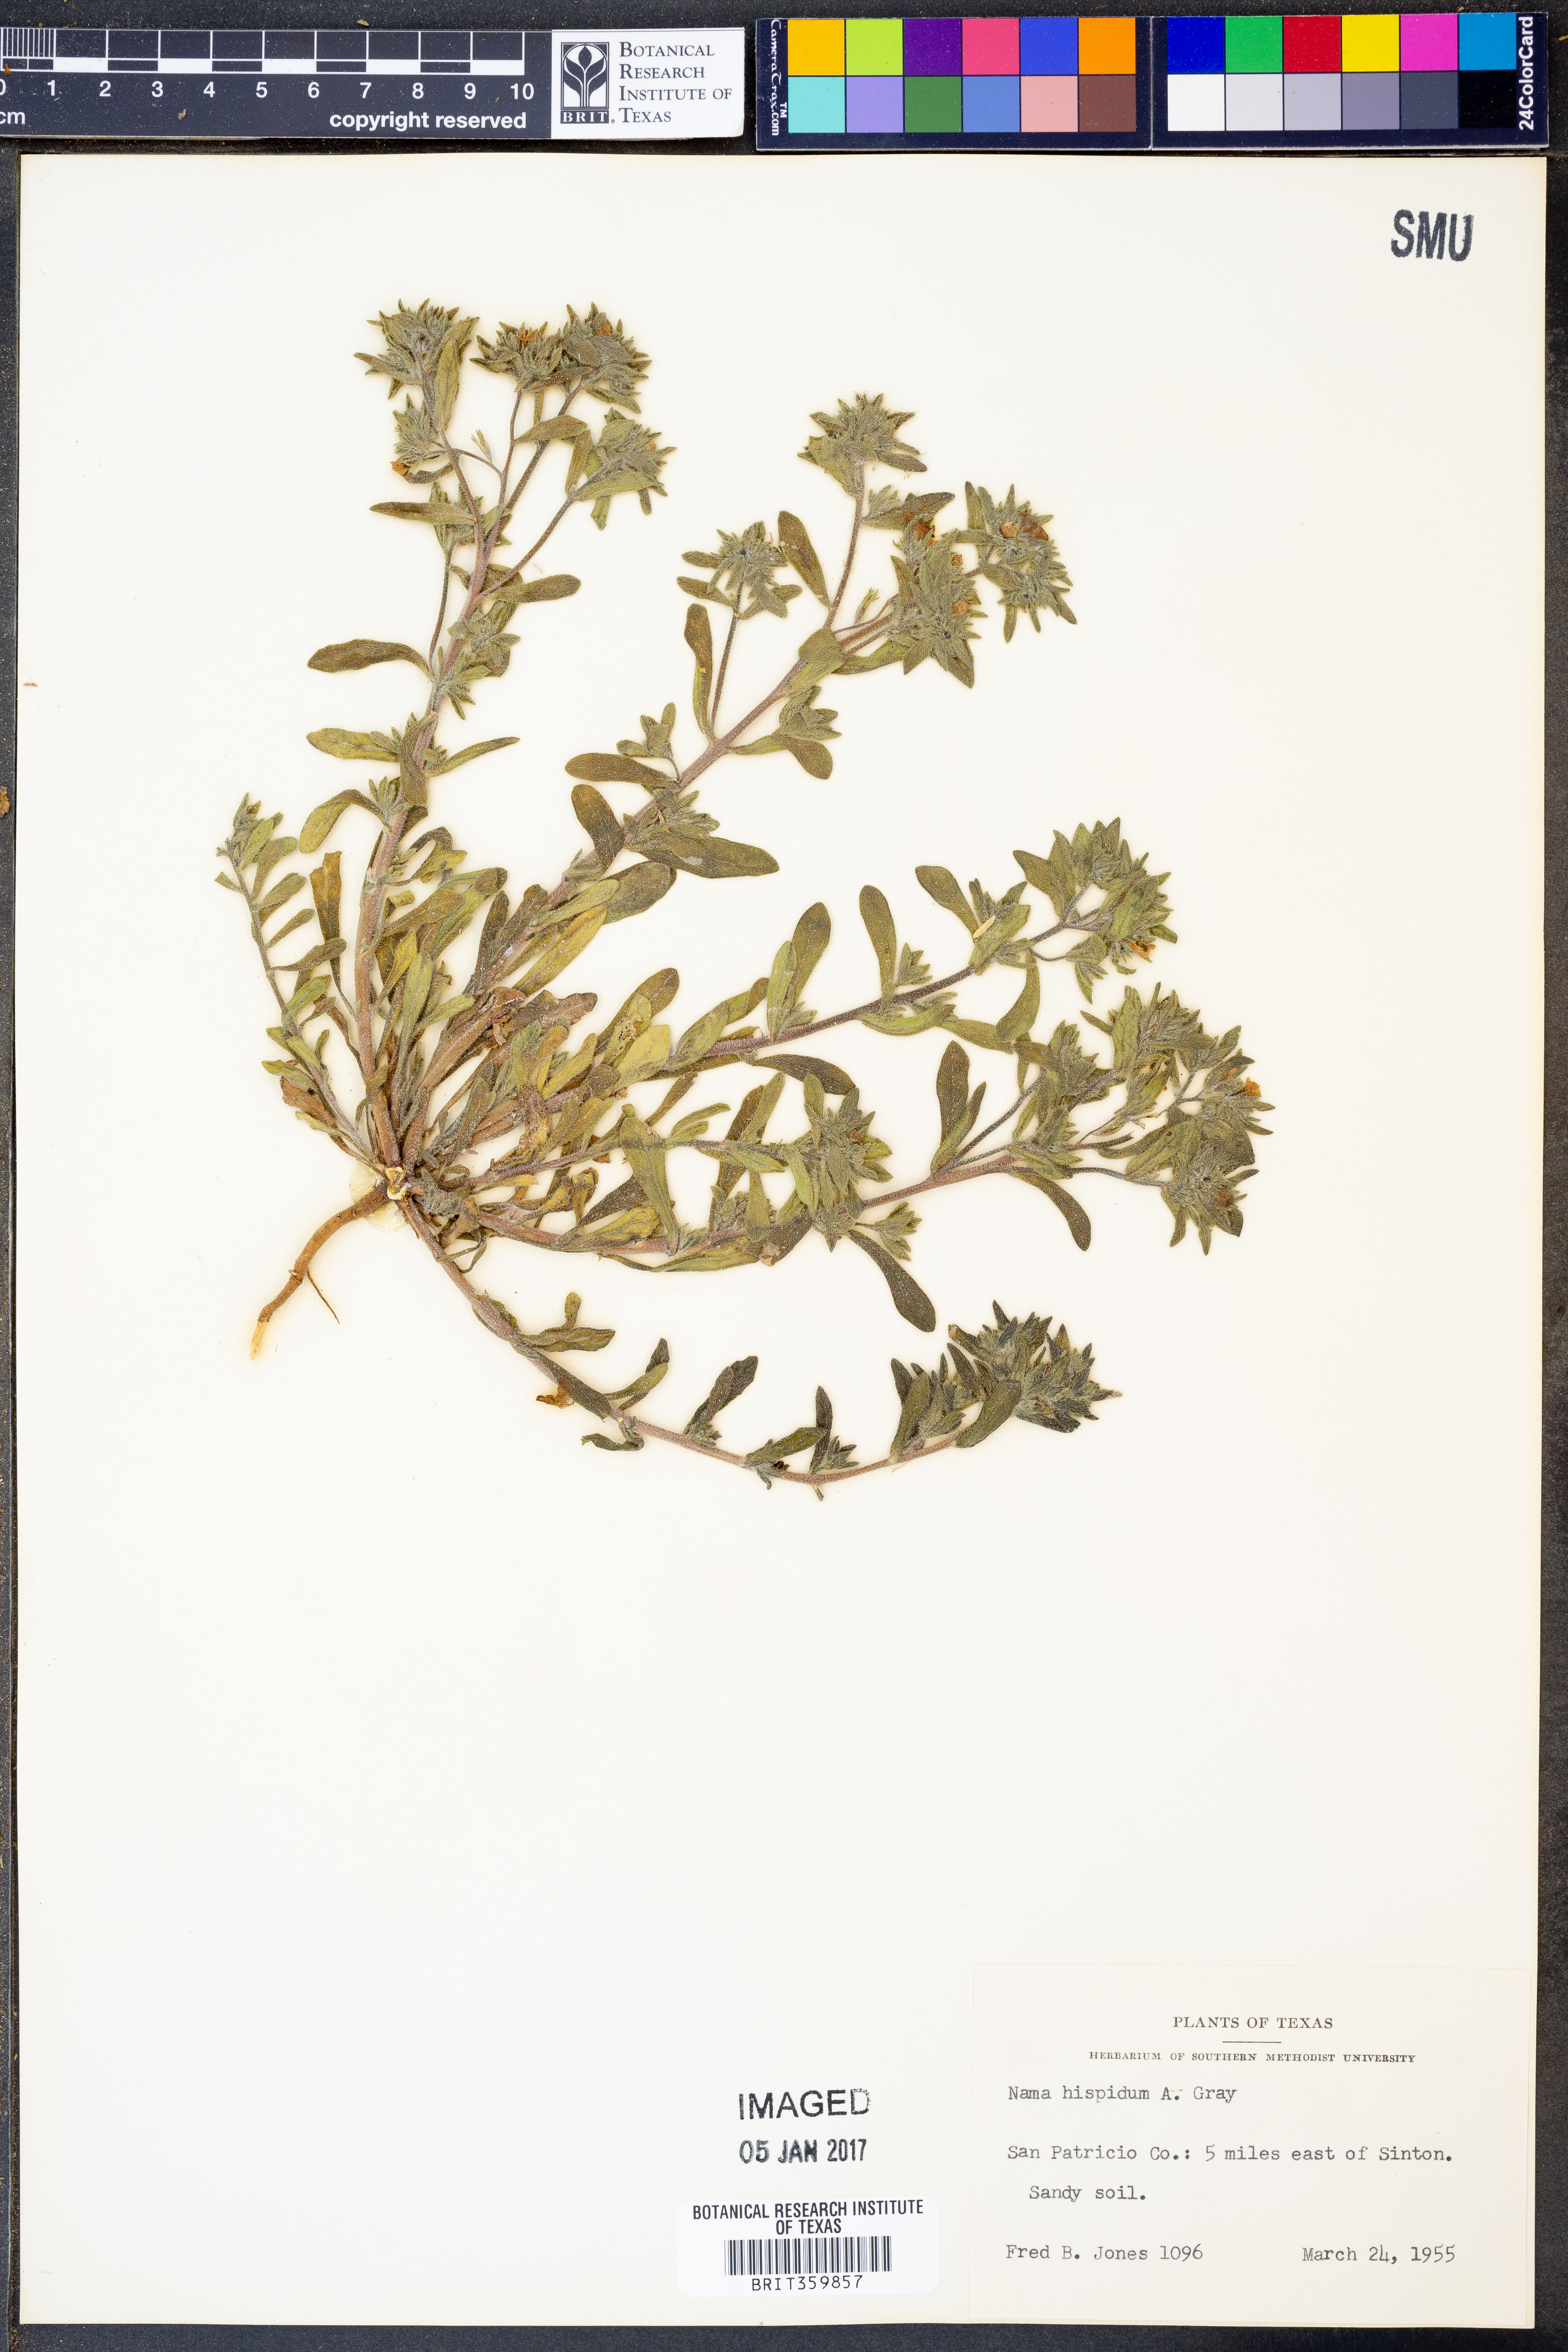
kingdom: Plantae
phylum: Tracheophyta
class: Magnoliopsida
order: Boraginales
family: Namaceae
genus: Nama
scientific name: Nama hispida
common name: Bristly nama
